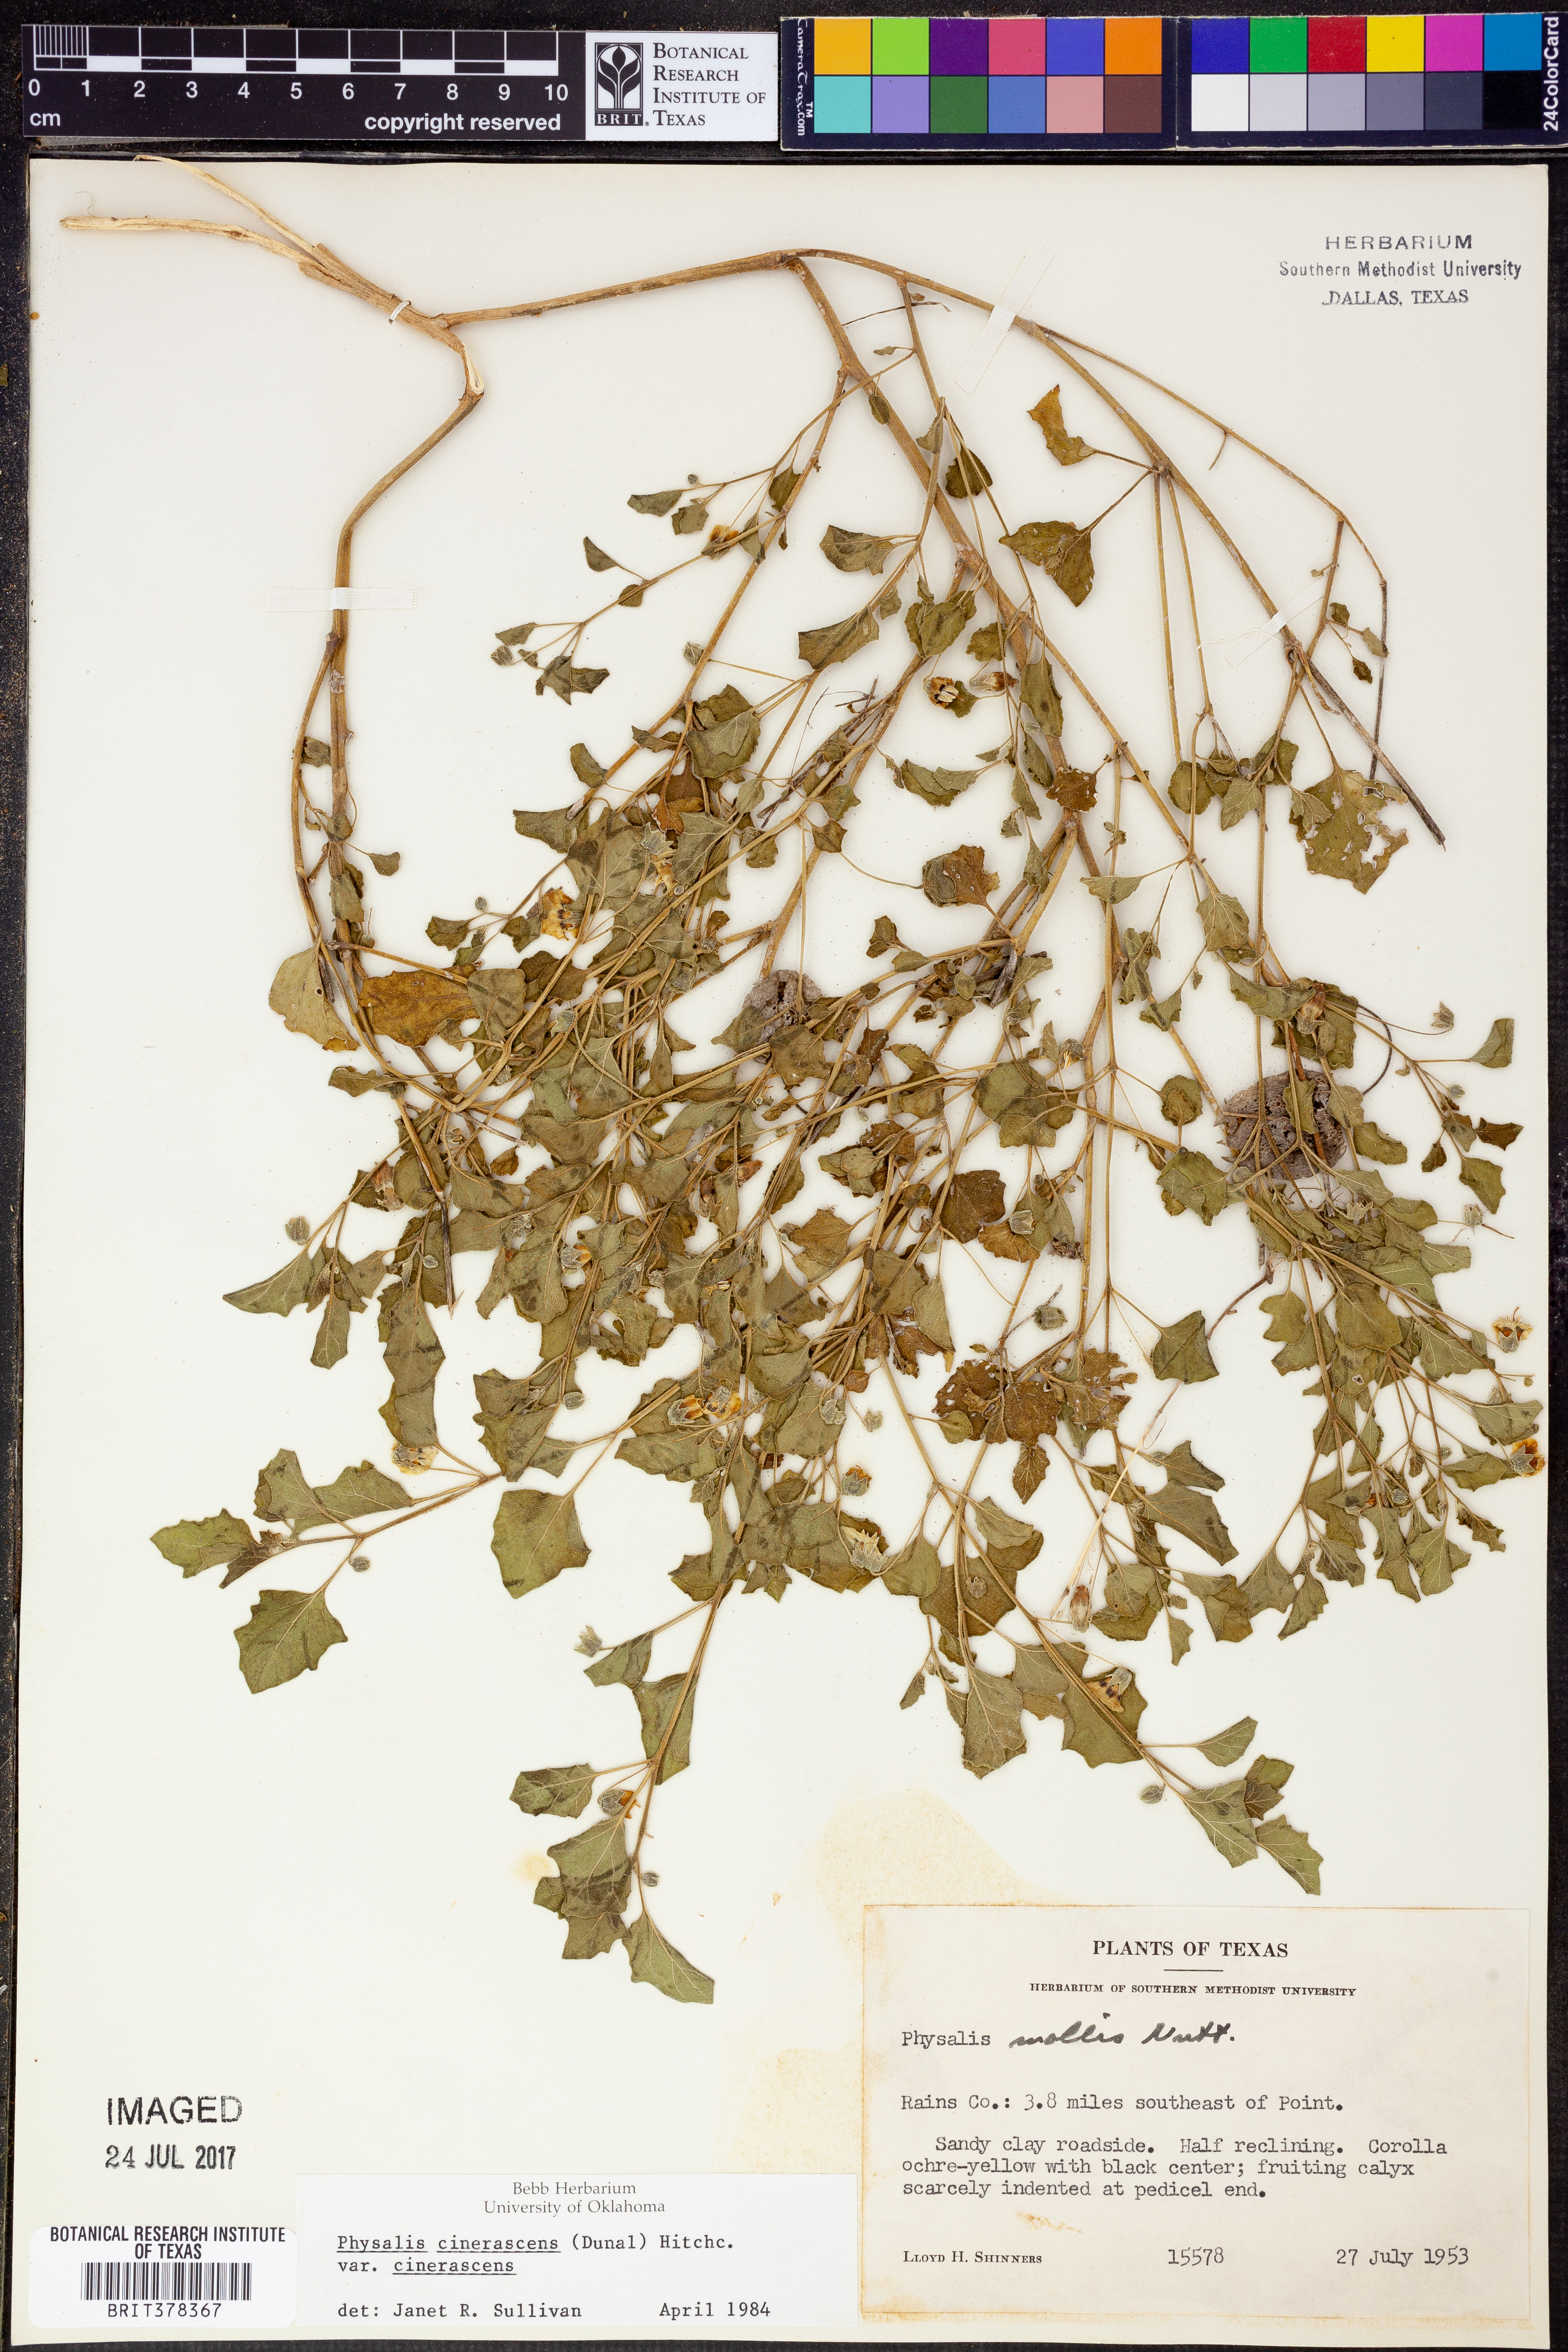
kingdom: Plantae
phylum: Tracheophyta
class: Magnoliopsida
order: Solanales
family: Solanaceae
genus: Physalis
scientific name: Physalis cinerascens
